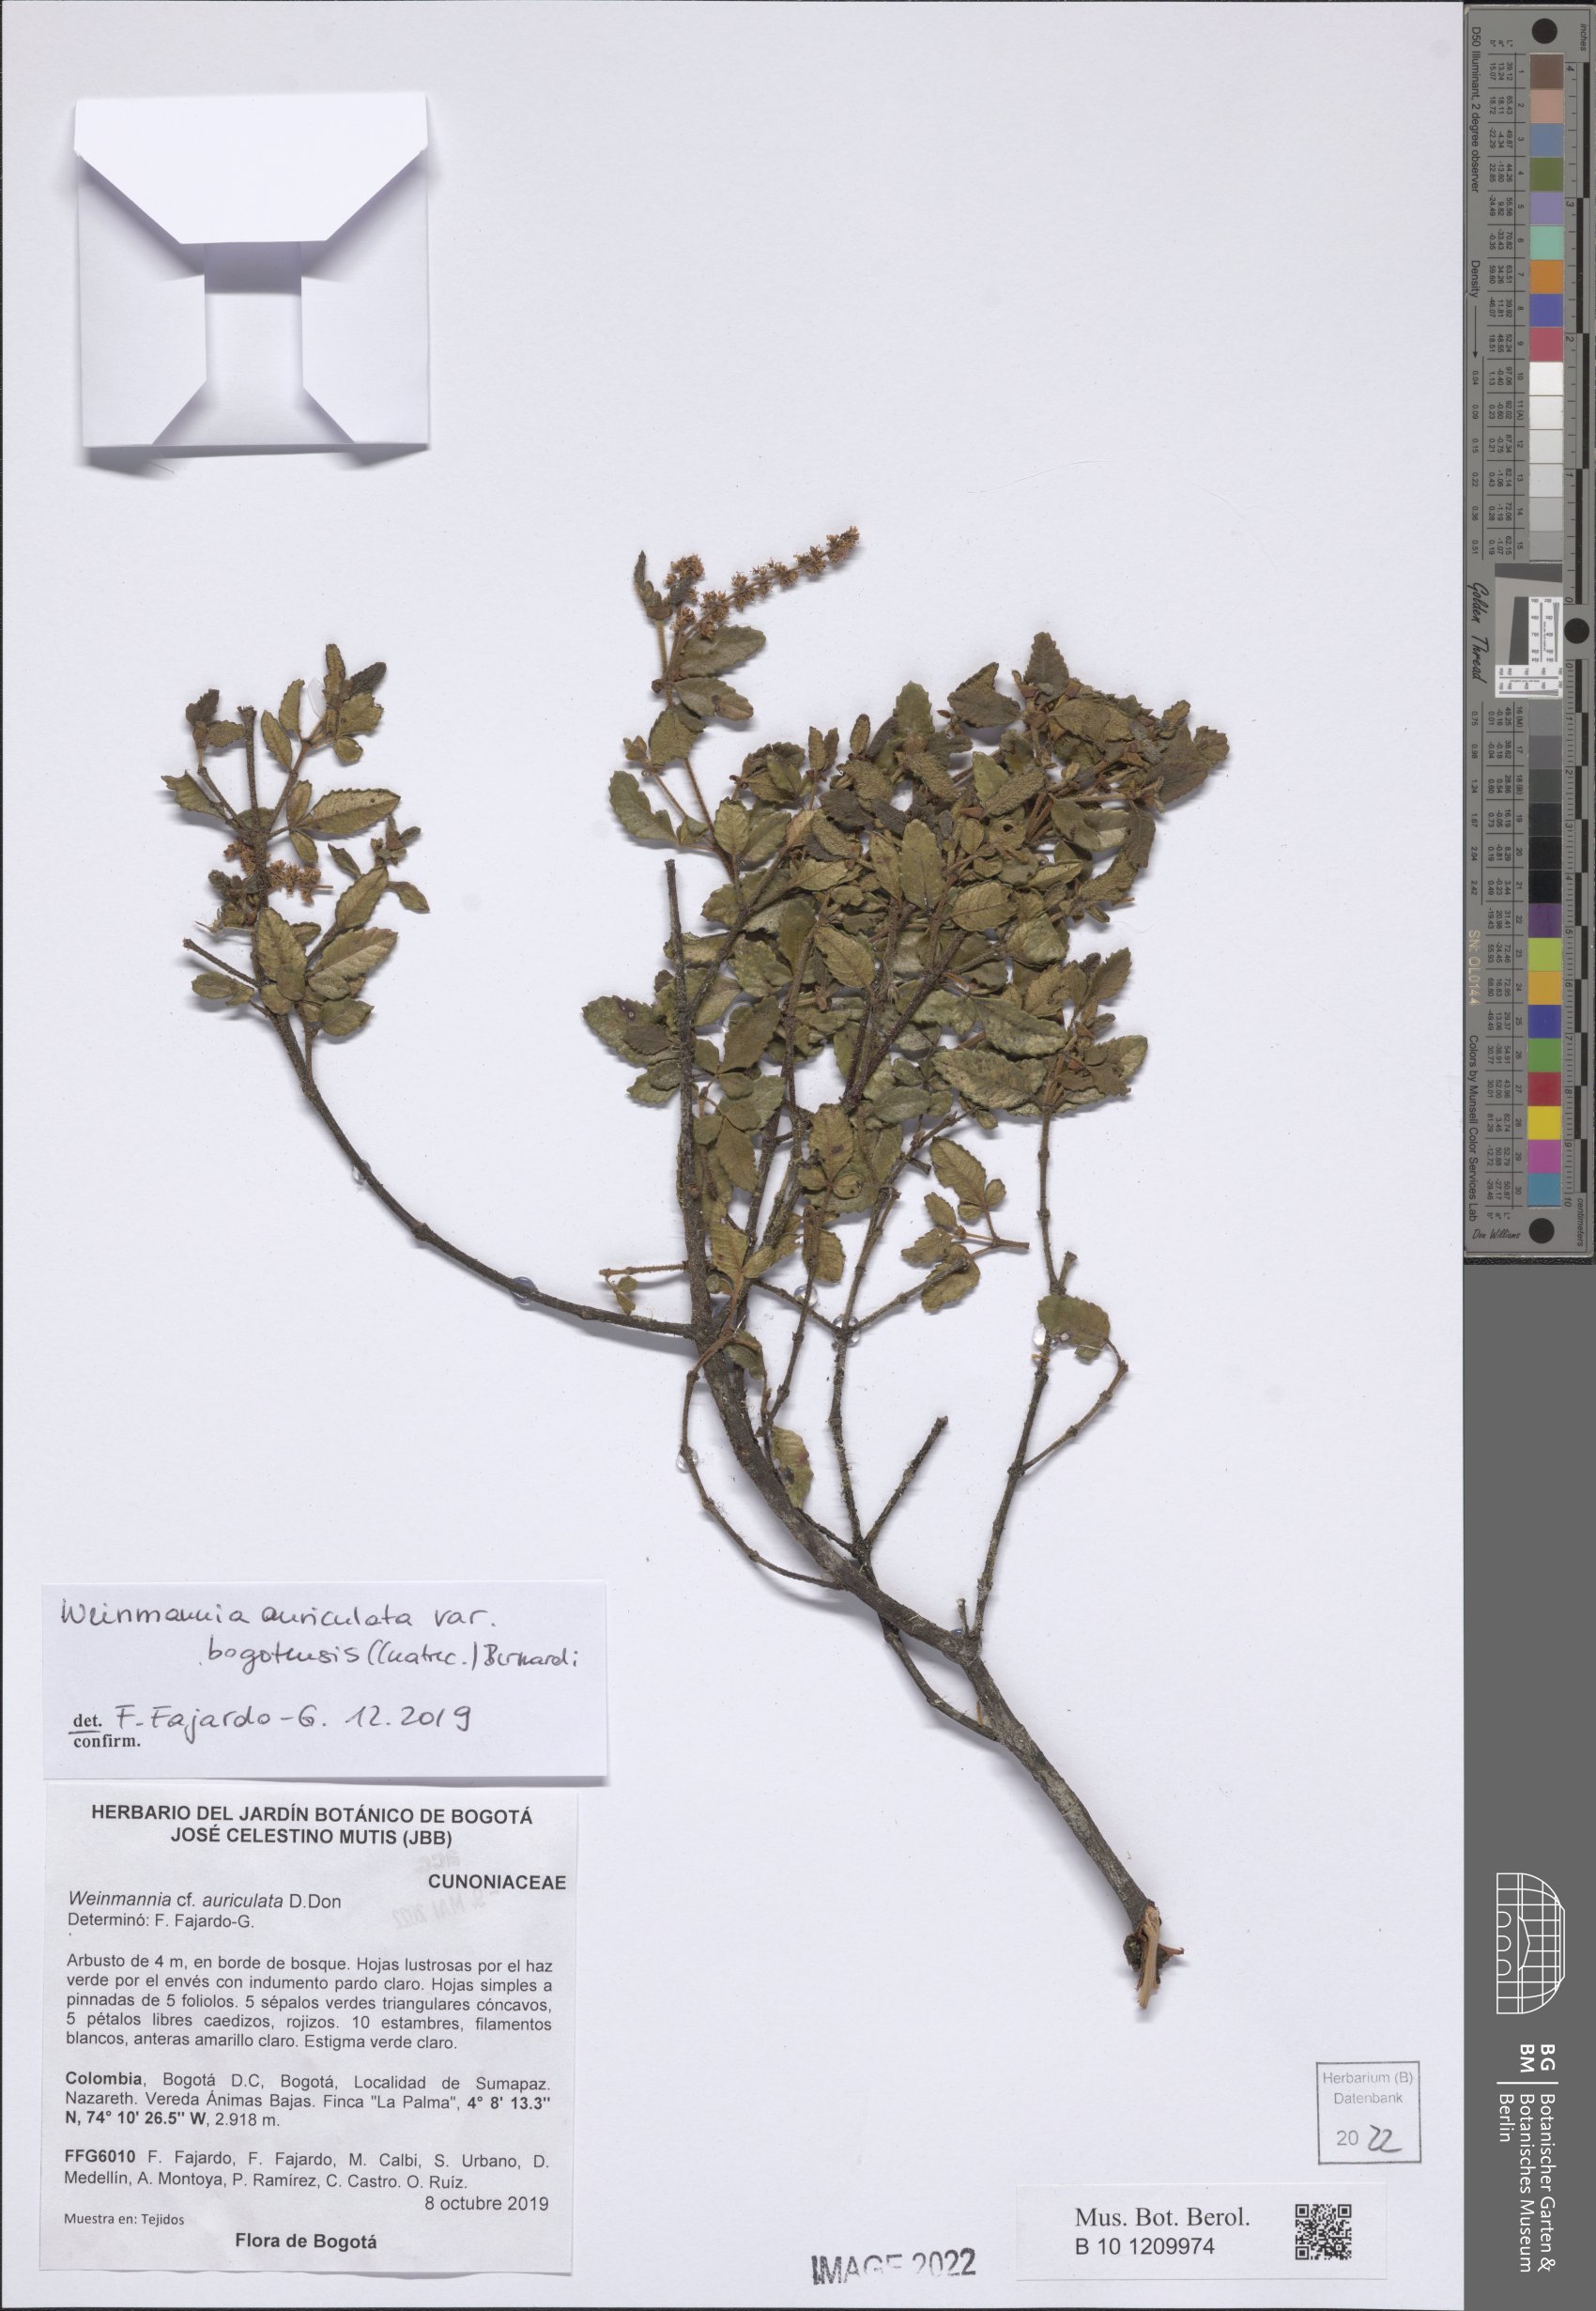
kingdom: Plantae
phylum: Tracheophyta
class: Magnoliopsida
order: Oxalidales
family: Cunoniaceae
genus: Weinmannia
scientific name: Weinmannia auriculata
